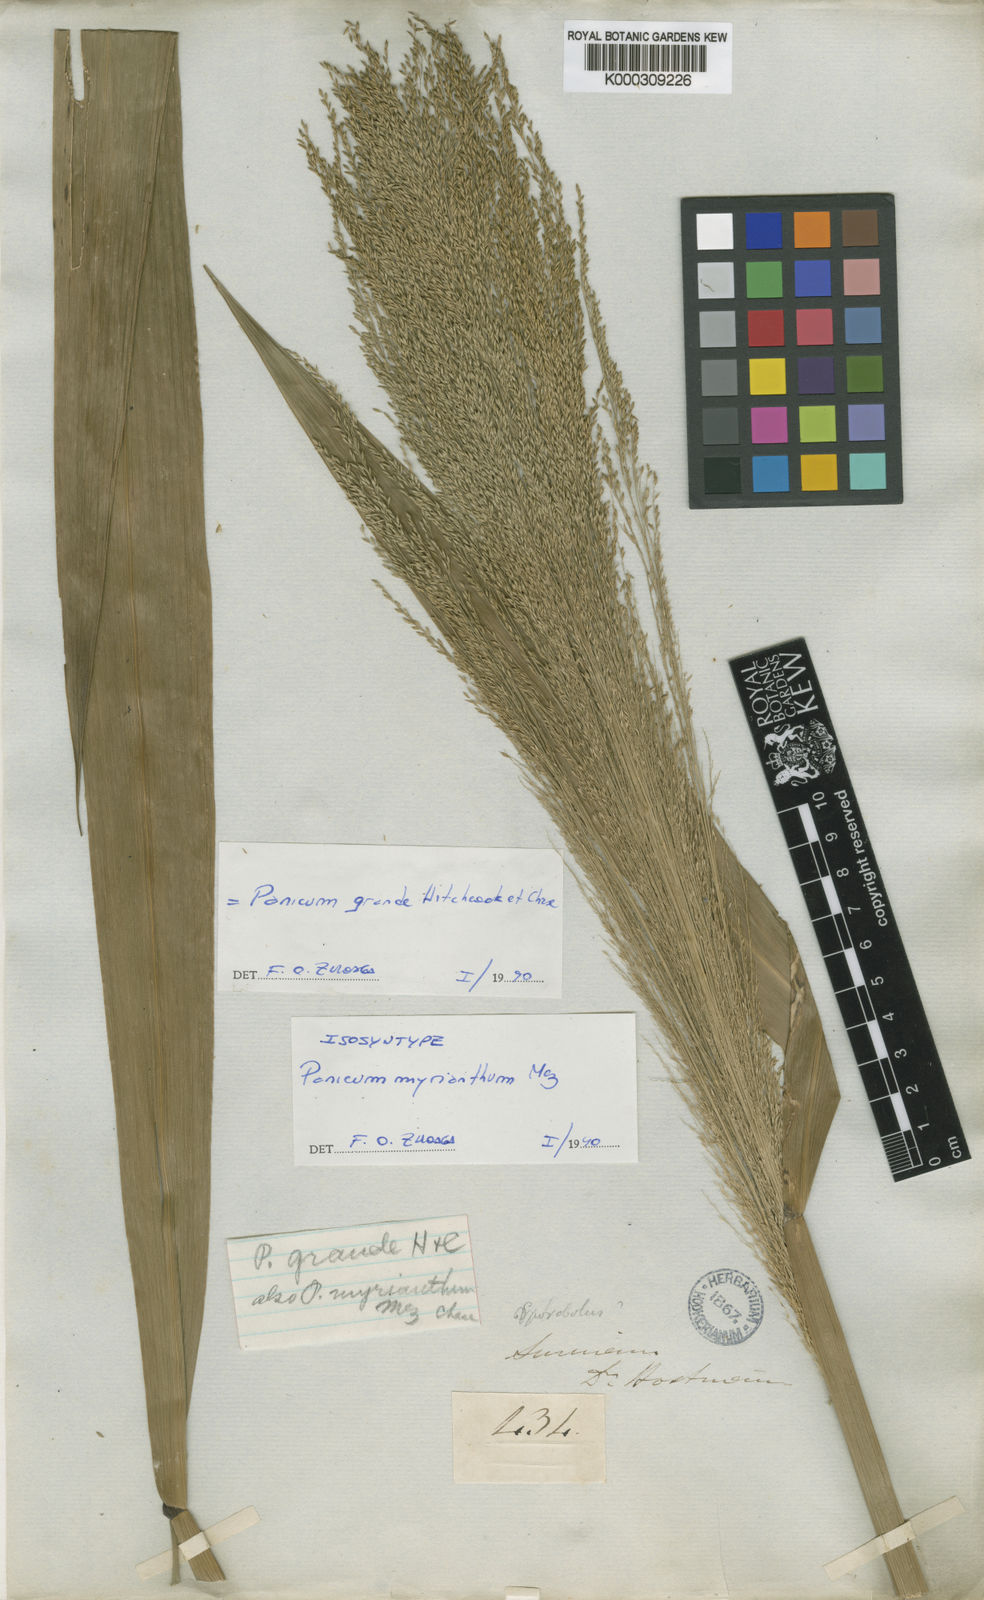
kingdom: Plantae
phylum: Tracheophyta
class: Liliopsida
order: Poales
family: Poaceae
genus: Hymenachne
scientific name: Hymenachne grandis
